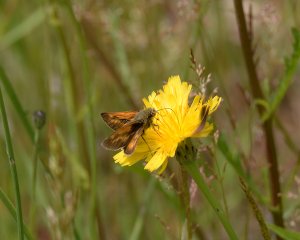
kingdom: Animalia
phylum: Arthropoda
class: Insecta
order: Lepidoptera
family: Hesperiidae
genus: Polites
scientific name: Polites
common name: Long Dash Skipper
